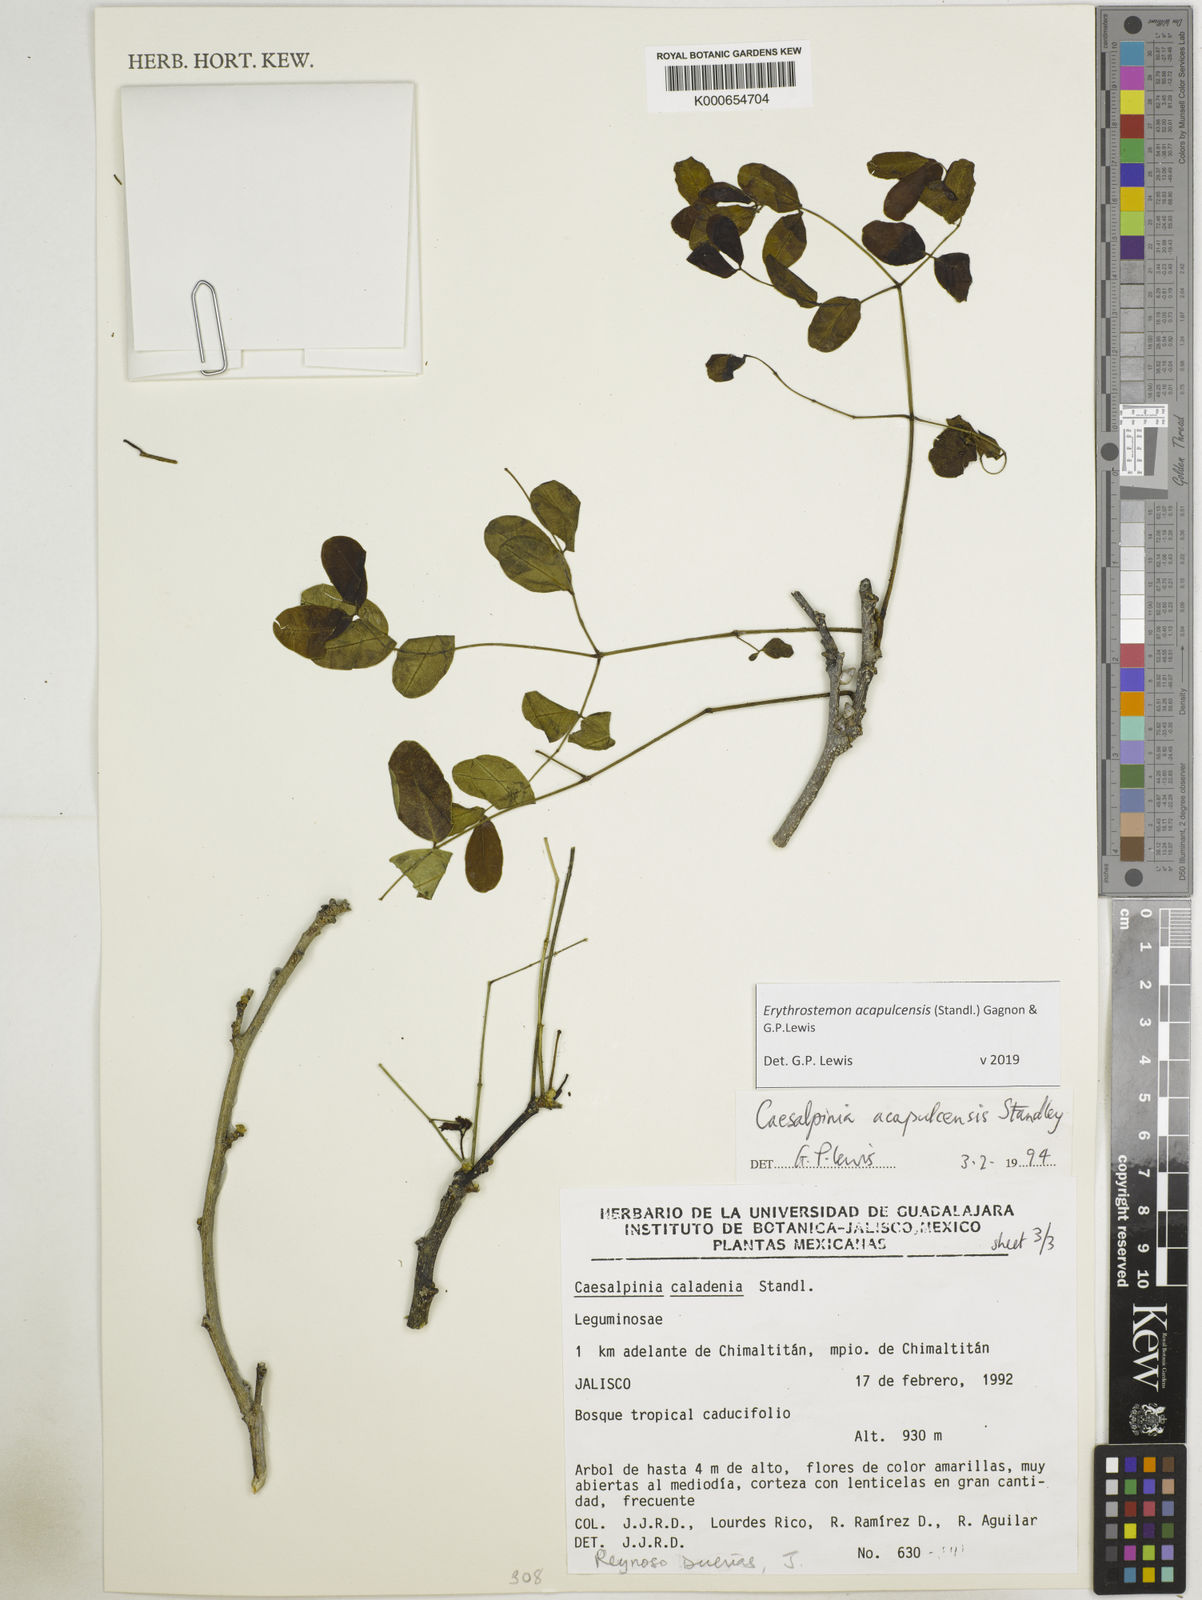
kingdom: Plantae
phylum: Tracheophyta
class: Magnoliopsida
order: Fabales
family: Fabaceae
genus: Erythrostemon
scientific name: Erythrostemon acapulcensis
